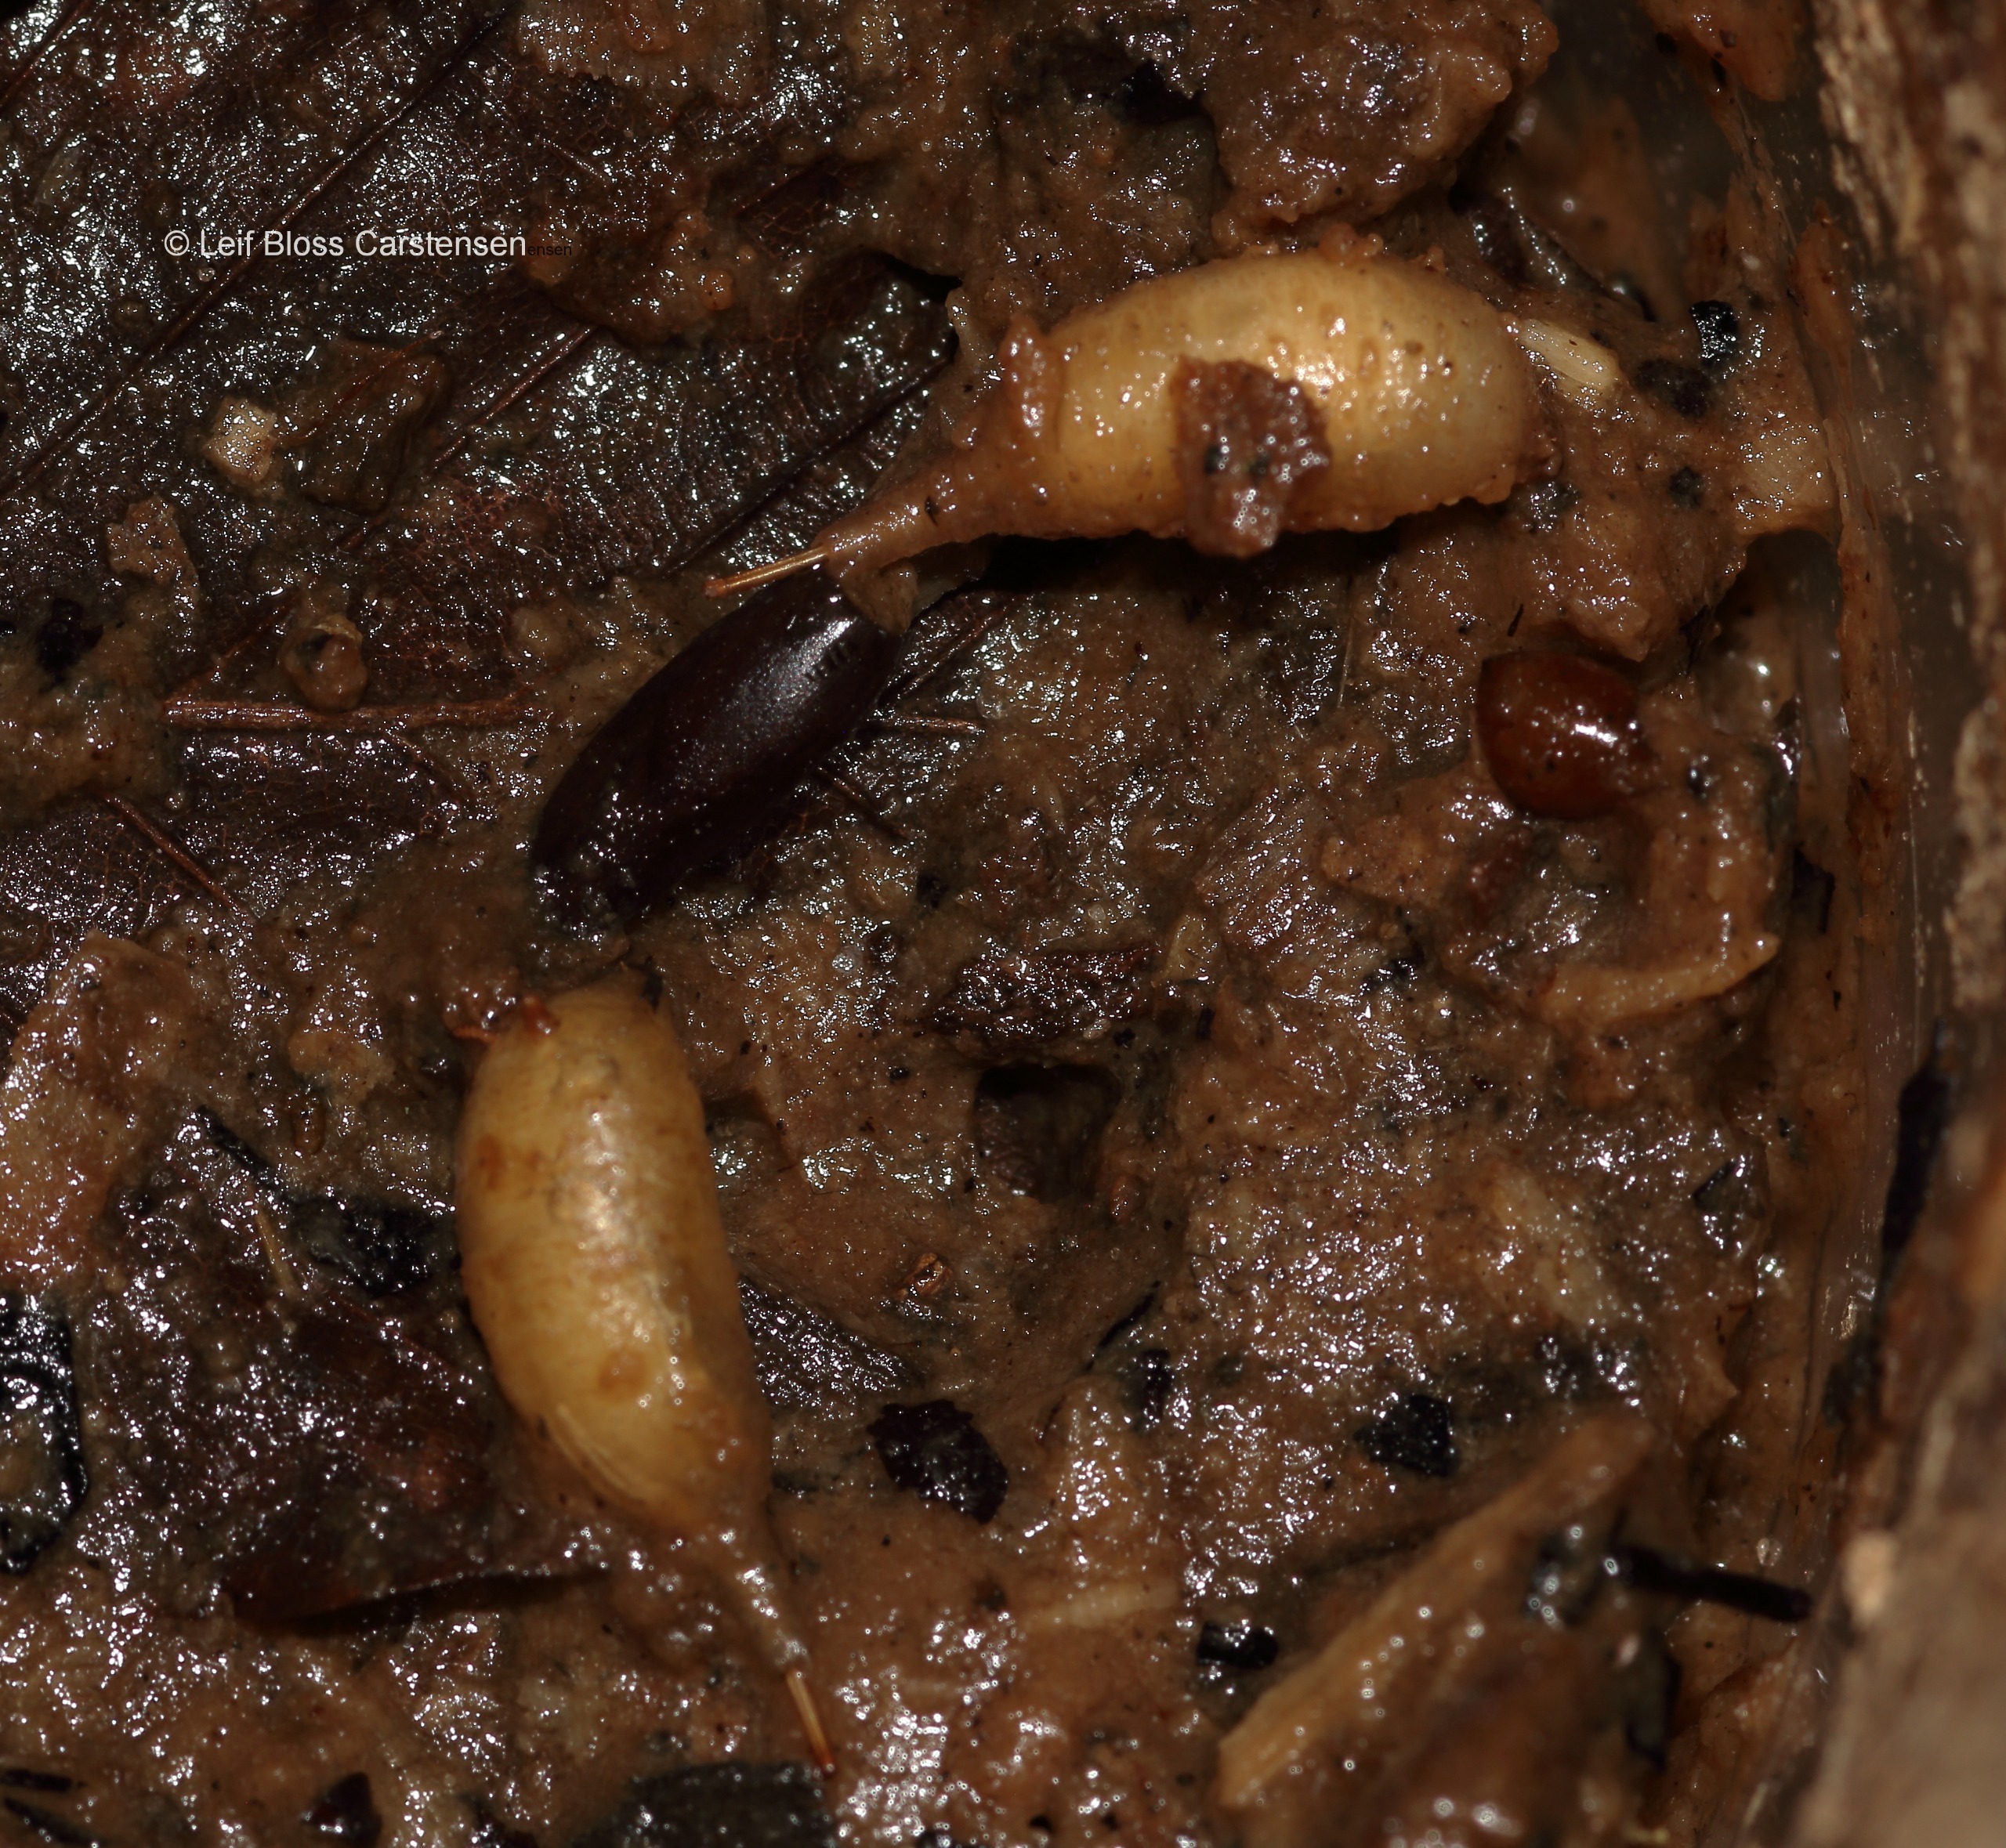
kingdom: Animalia
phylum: Arthropoda
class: Insecta
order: Diptera
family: Syrphidae
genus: Brachypalpoides
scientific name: Brachypalpoides lenta
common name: Rød træsmuldsvirreflue
